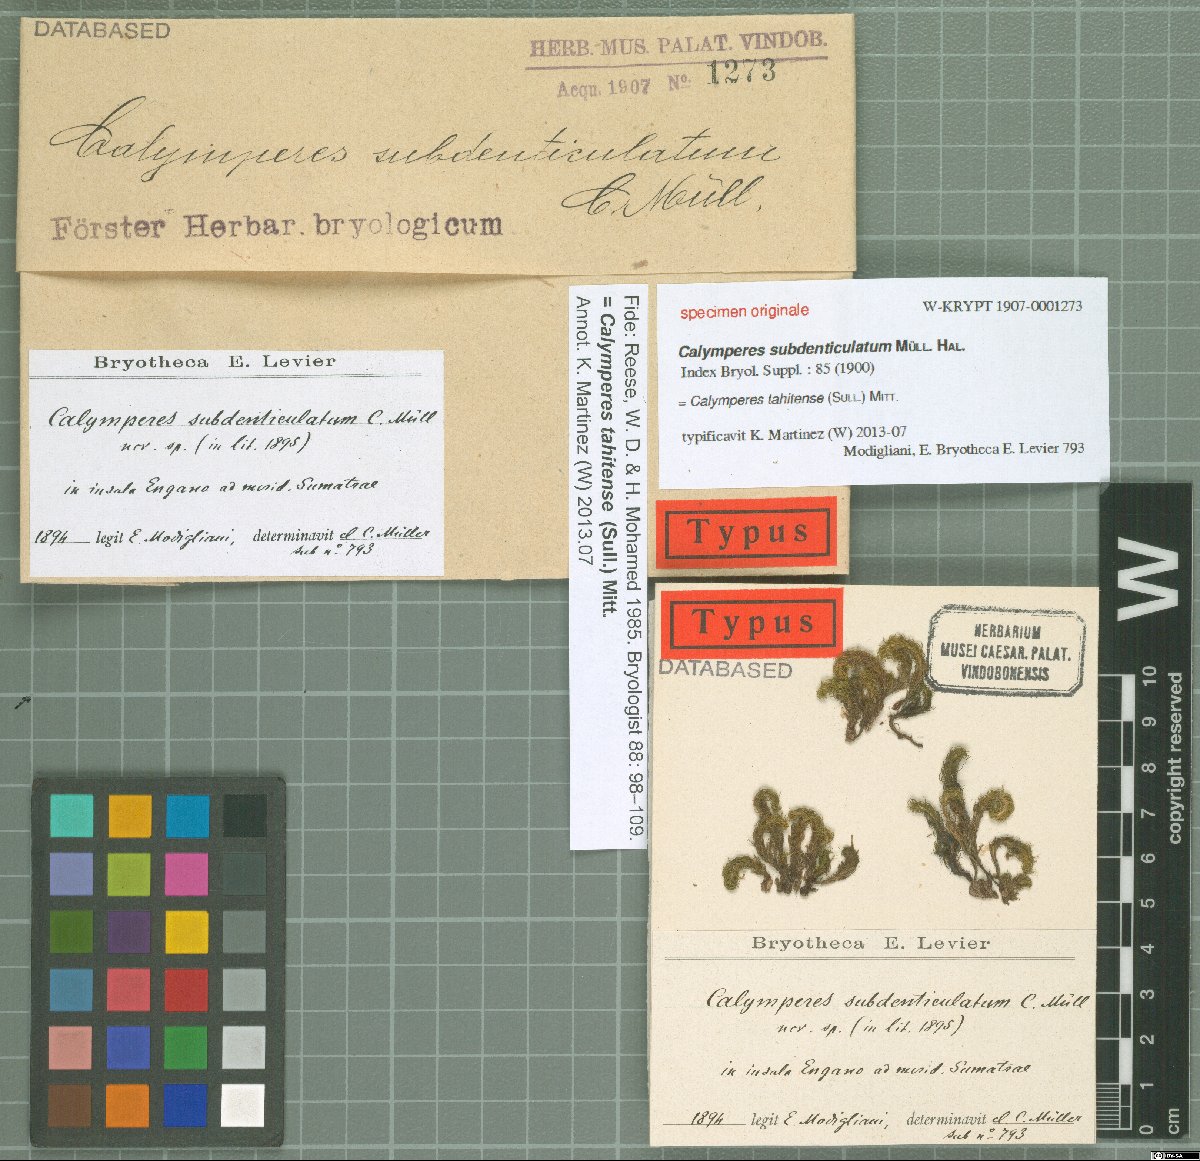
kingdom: Plantae
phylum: Bryophyta
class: Bryopsida
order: Dicranales
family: Calymperaceae
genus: Calymperes
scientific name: Calymperes tahitense
